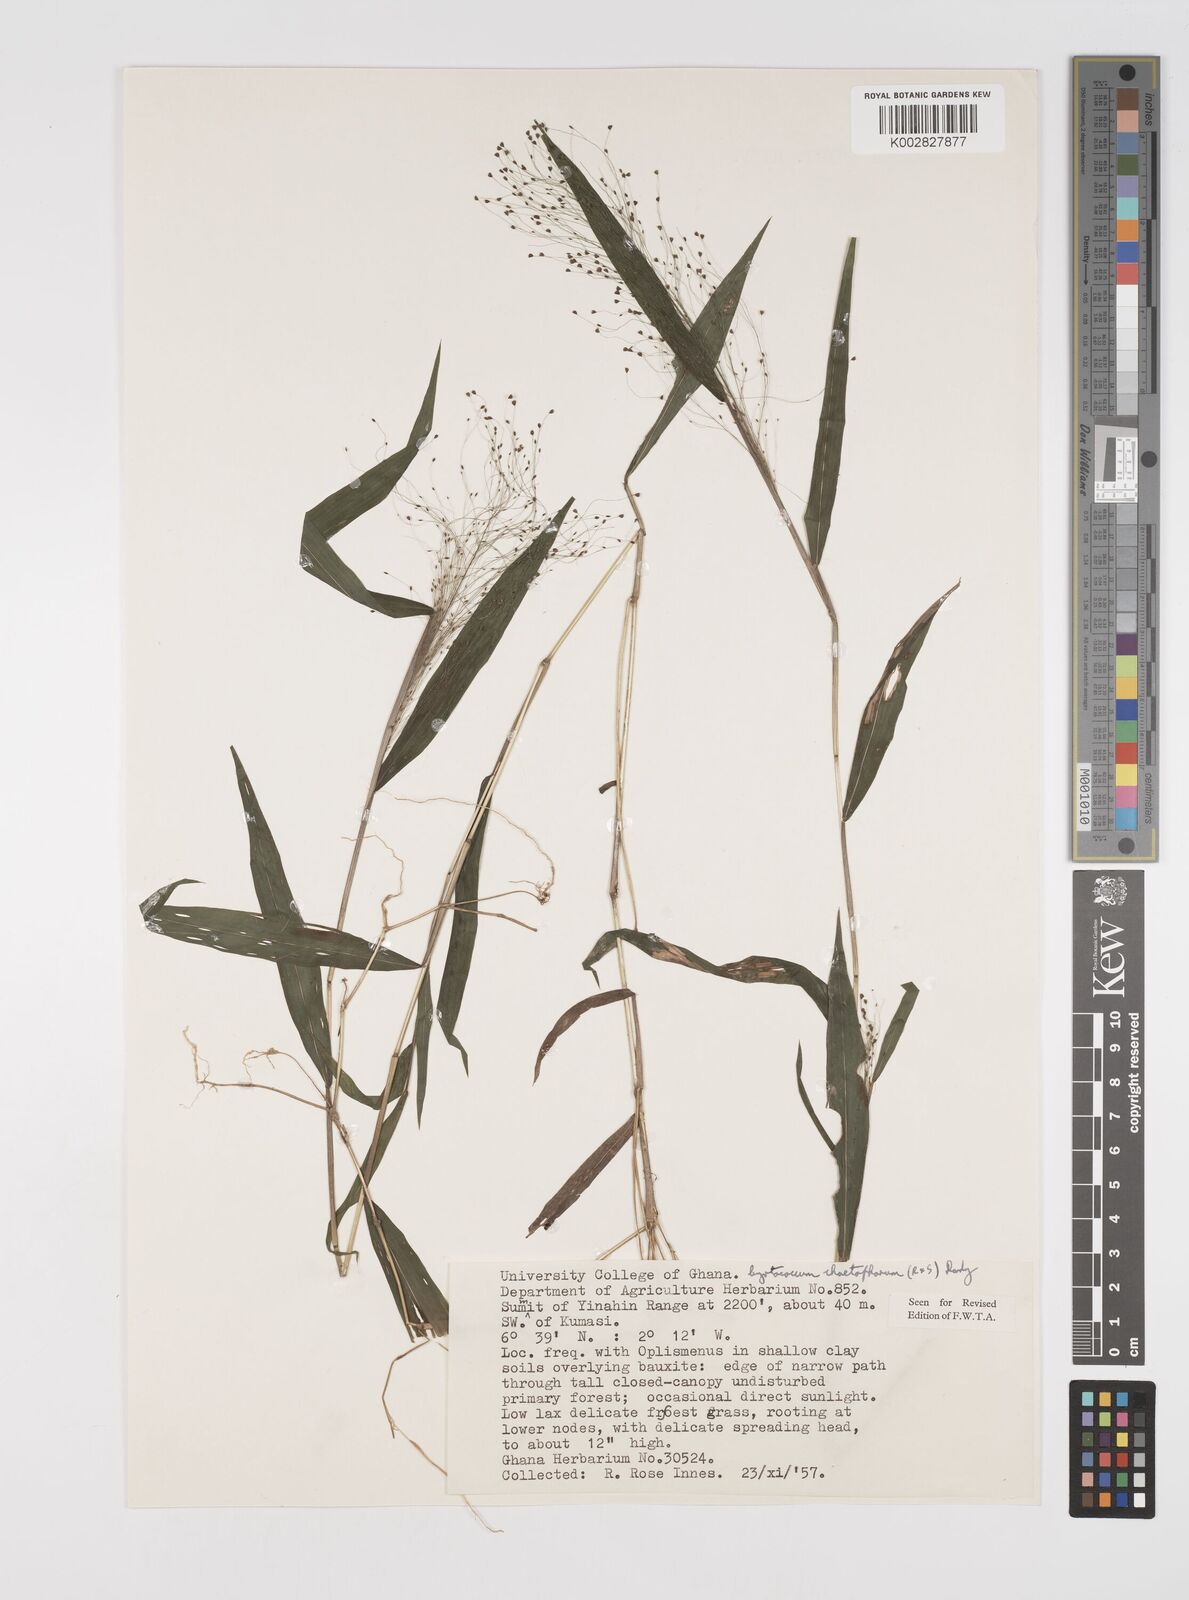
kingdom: Plantae
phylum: Tracheophyta
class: Liliopsida
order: Poales
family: Poaceae
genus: Cyrtococcum
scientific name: Cyrtococcum chaetophoron
